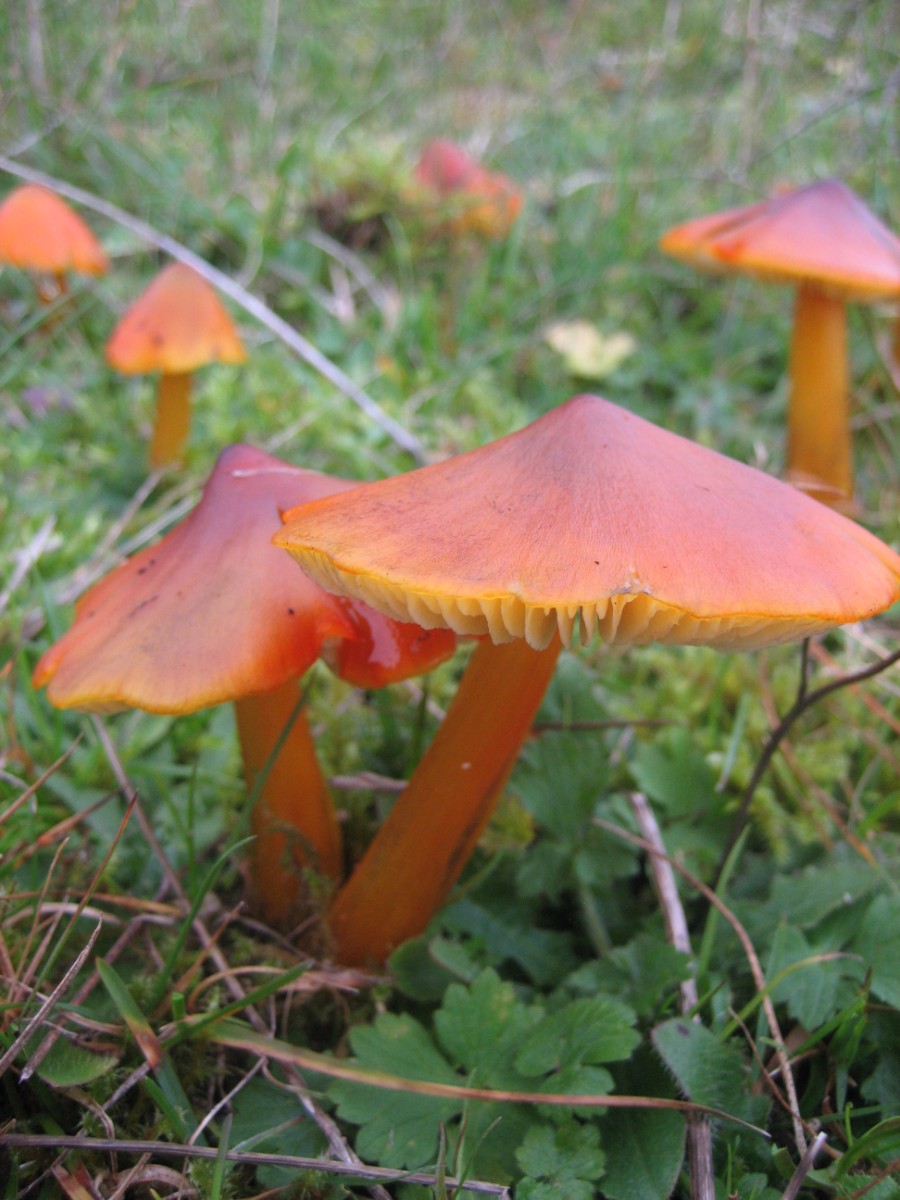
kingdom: Fungi
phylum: Basidiomycota
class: Agaricomycetes
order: Agaricales
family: Hygrophoraceae
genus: Hygrocybe
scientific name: Hygrocybe conica
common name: kegle-vokshat
